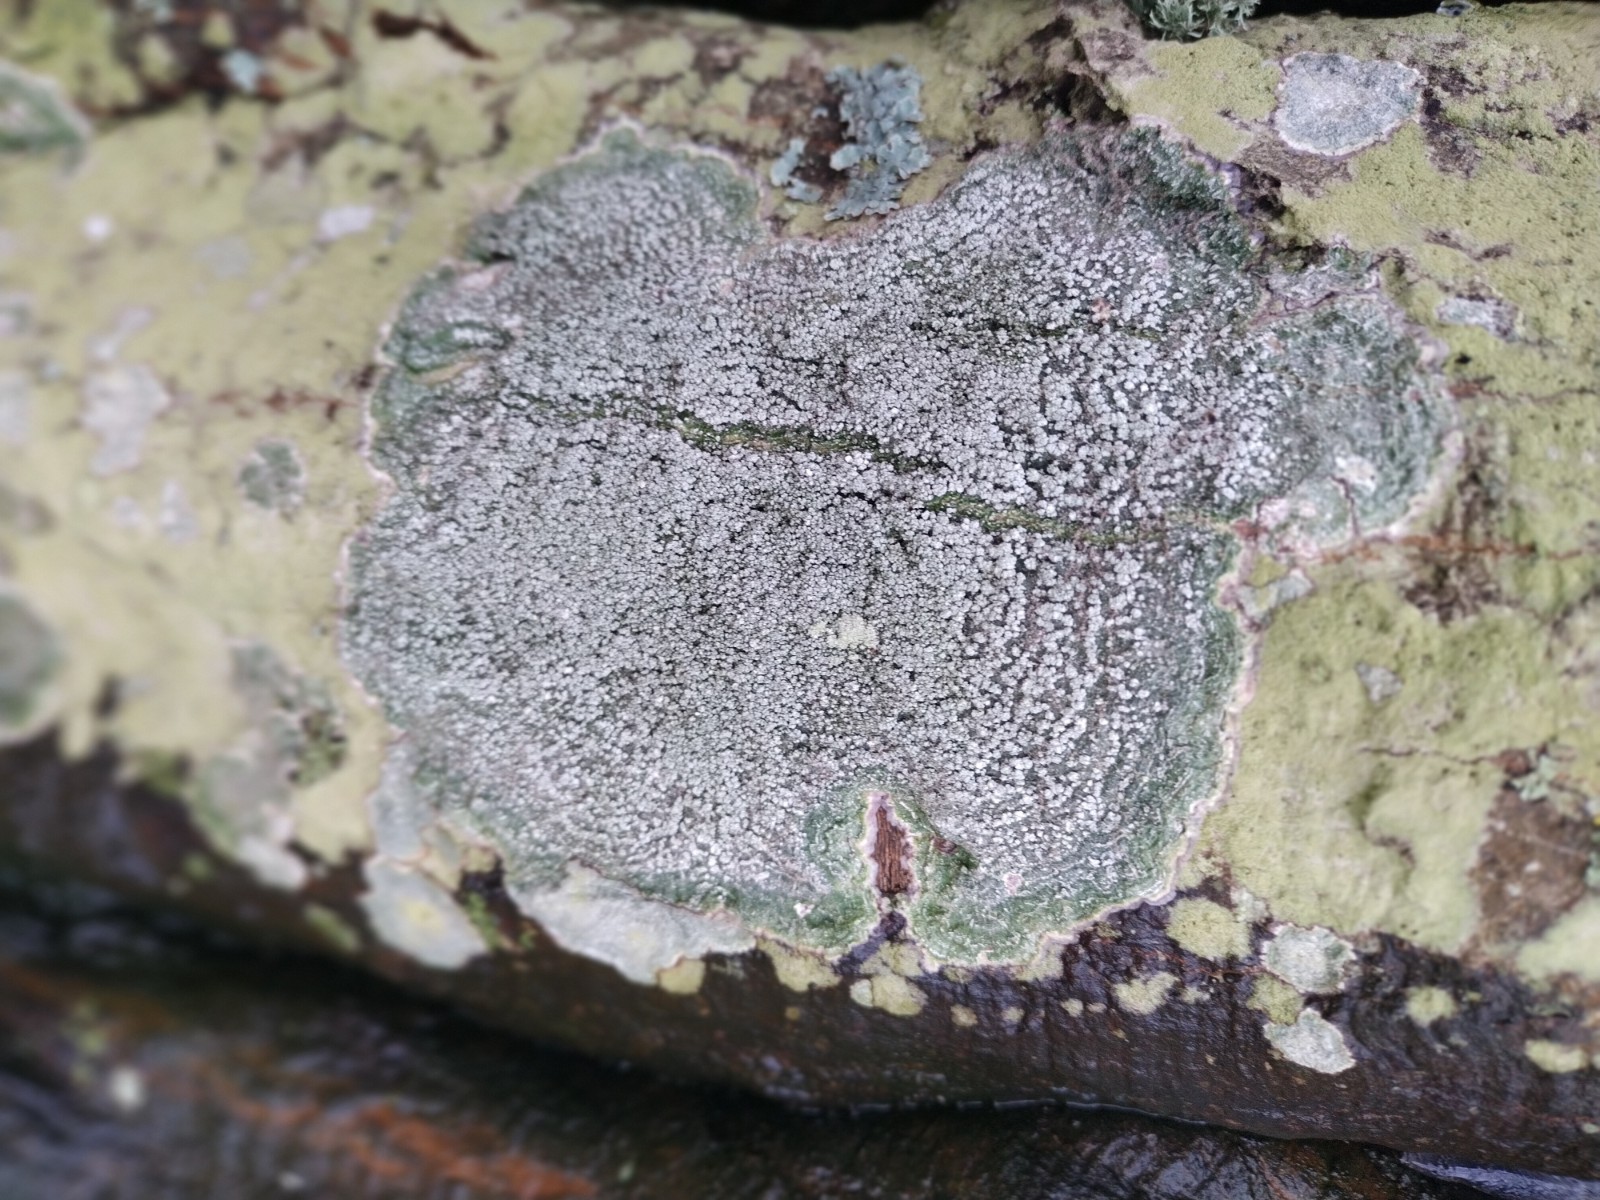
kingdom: Fungi
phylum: Ascomycota
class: Lecanoromycetes
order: Pertusariales
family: Pertusariaceae
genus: Lepra
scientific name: Lepra amara
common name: bitter prikvortelav
